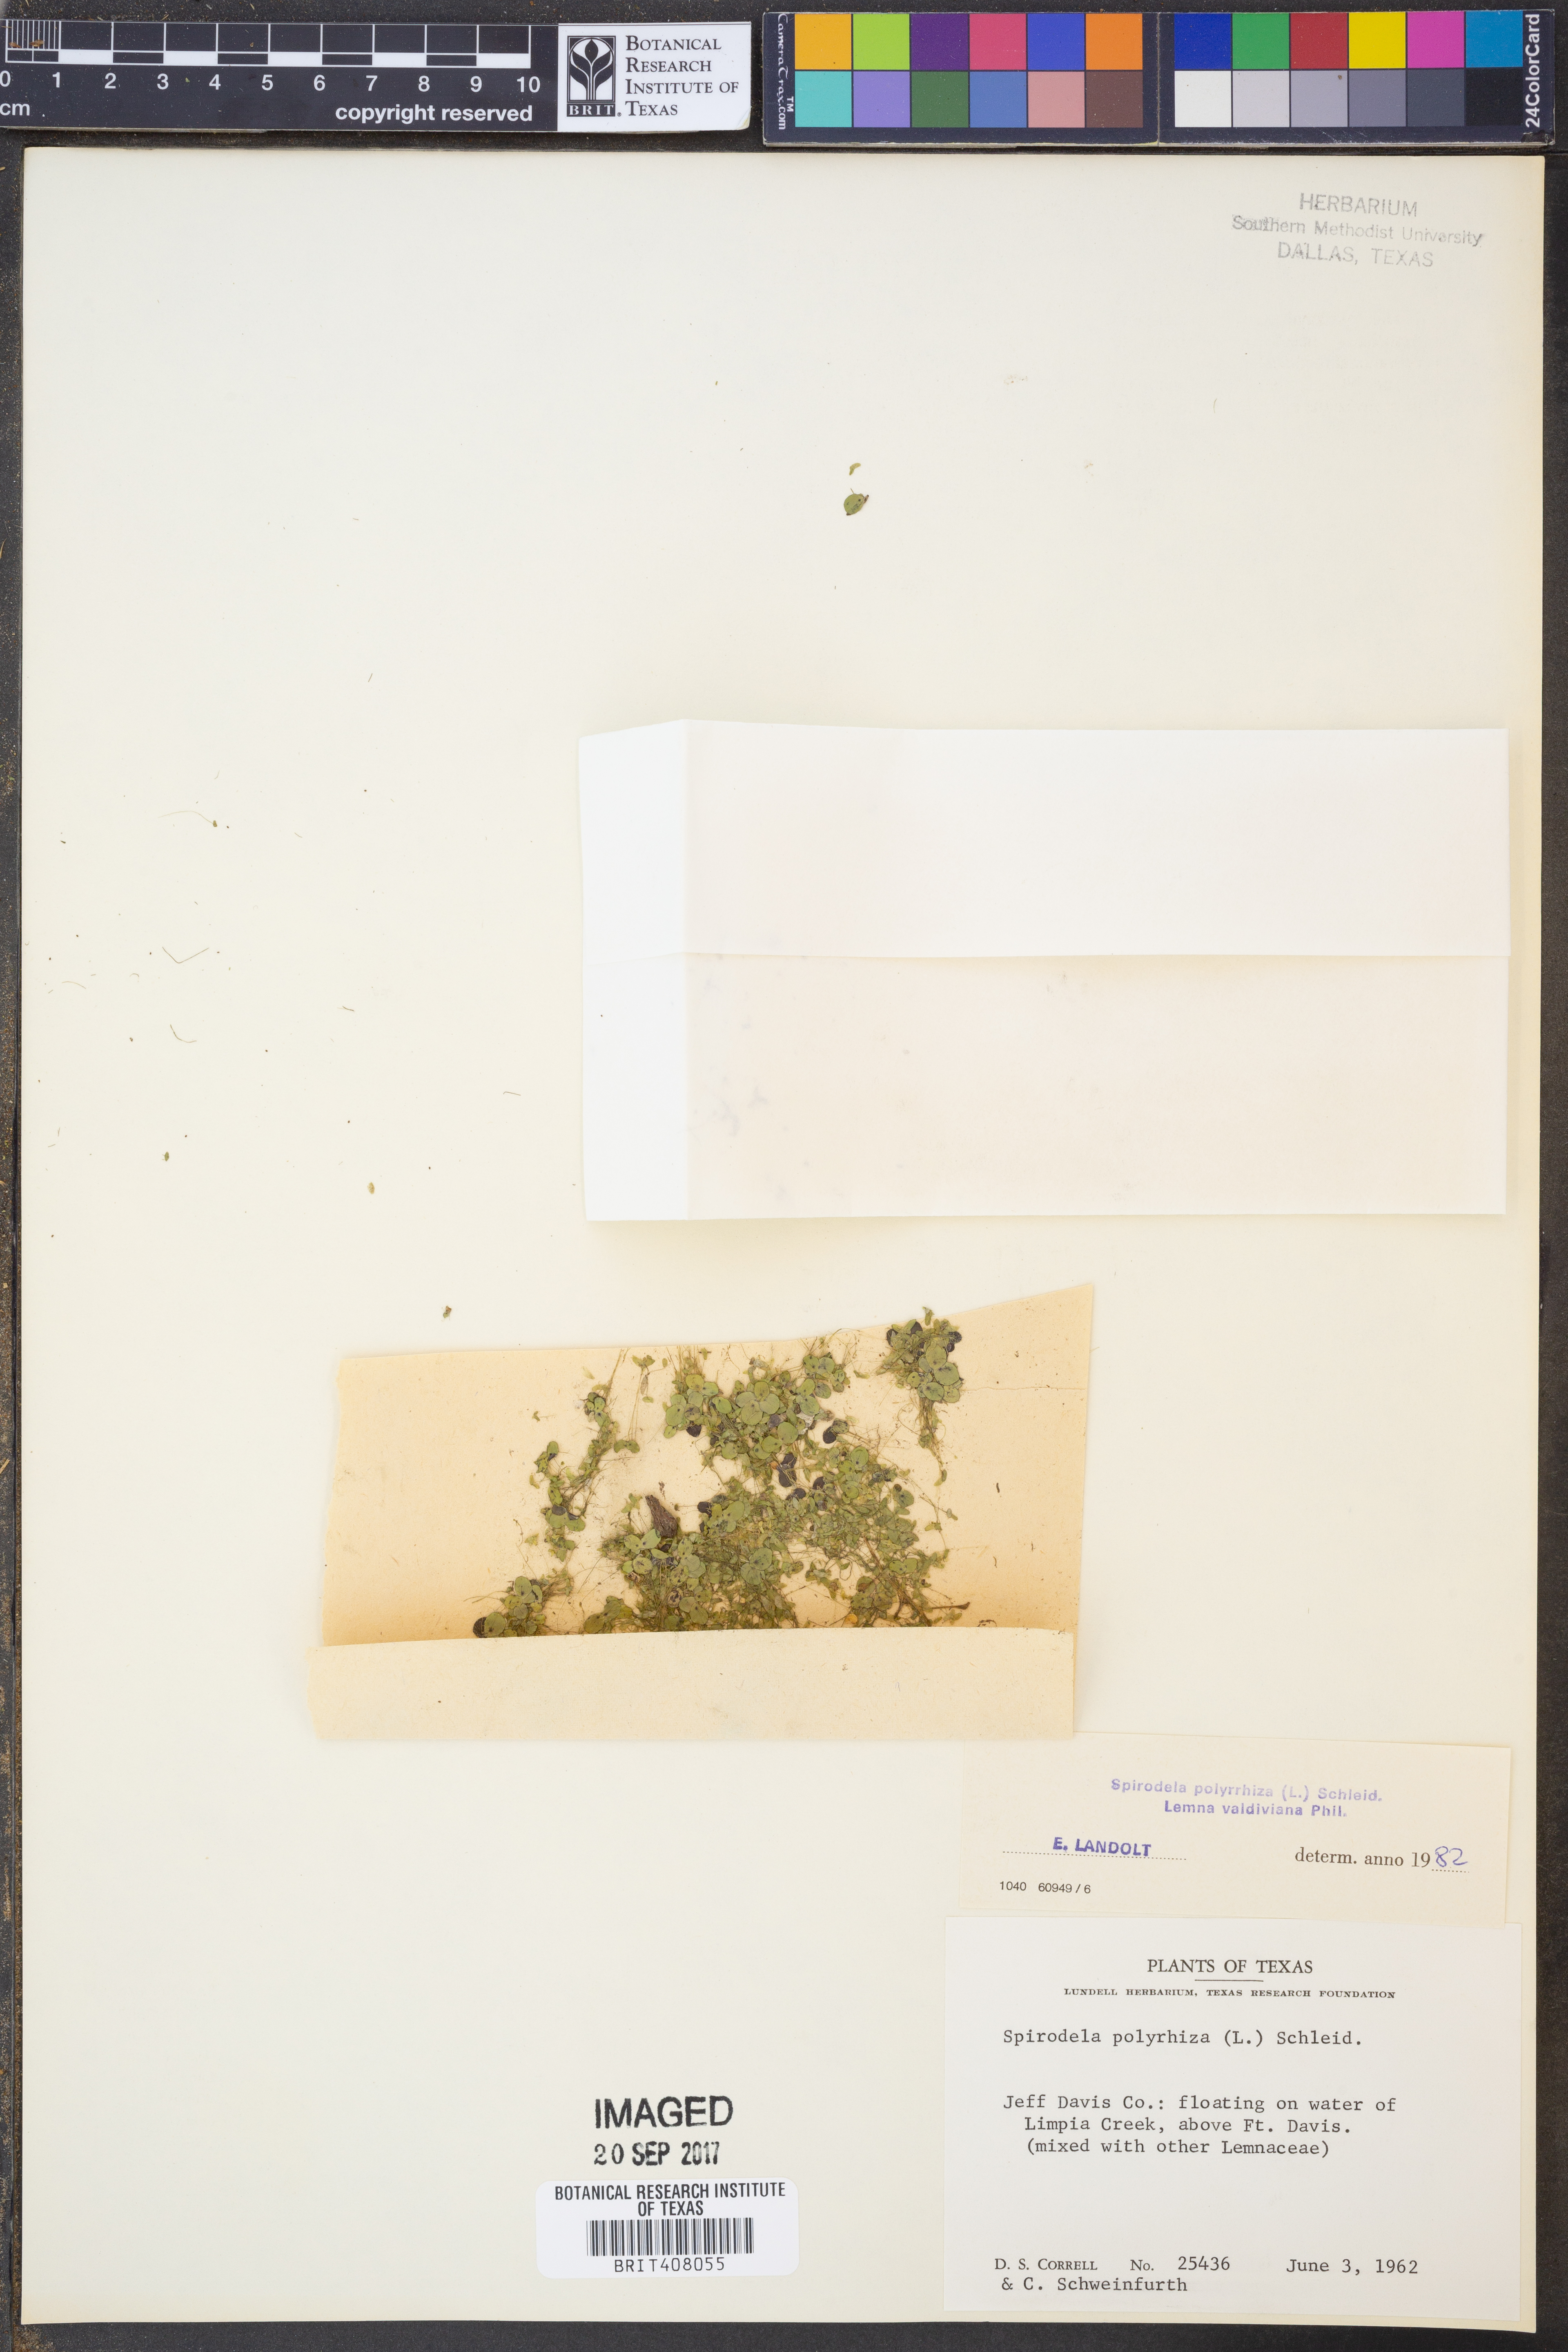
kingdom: Plantae
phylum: Tracheophyta
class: Liliopsida
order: Alismatales
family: Araceae
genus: Spirodela
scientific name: Spirodela polyrhiza
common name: Great duckweed
